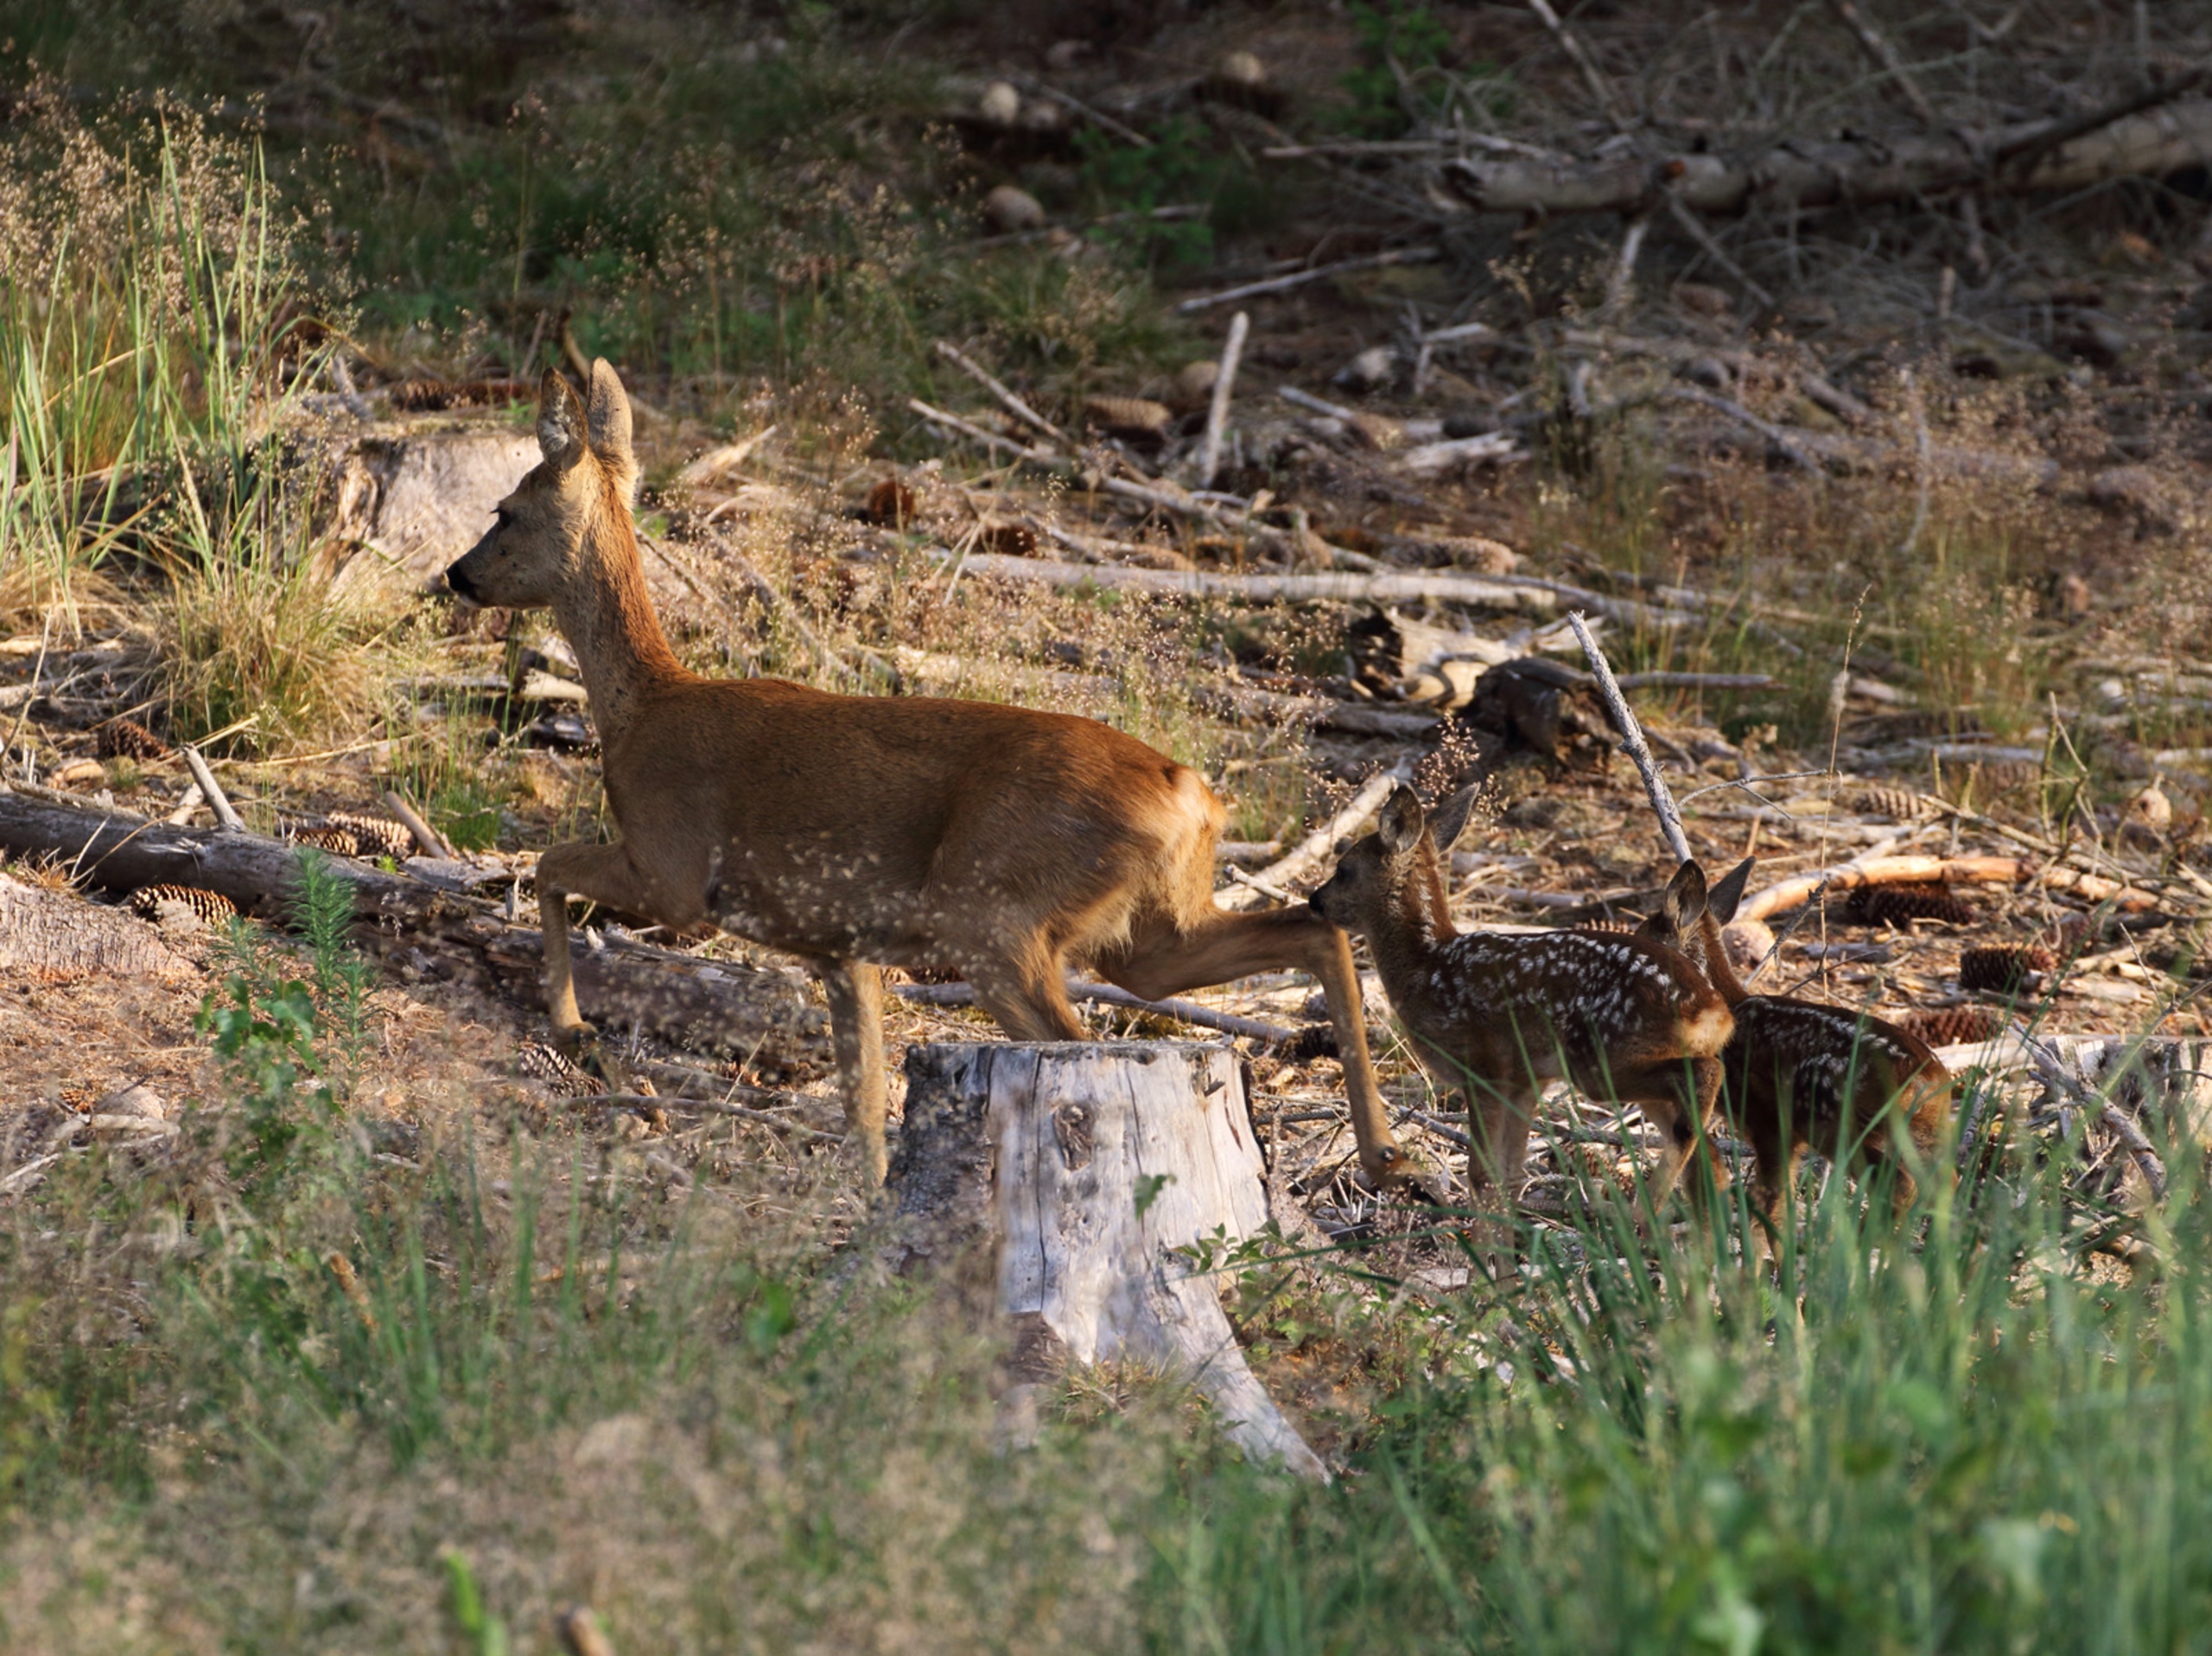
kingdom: Animalia
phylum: Chordata
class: Mammalia
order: Artiodactyla
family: Cervidae
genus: Capreolus
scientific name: Capreolus capreolus
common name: Rådyr
